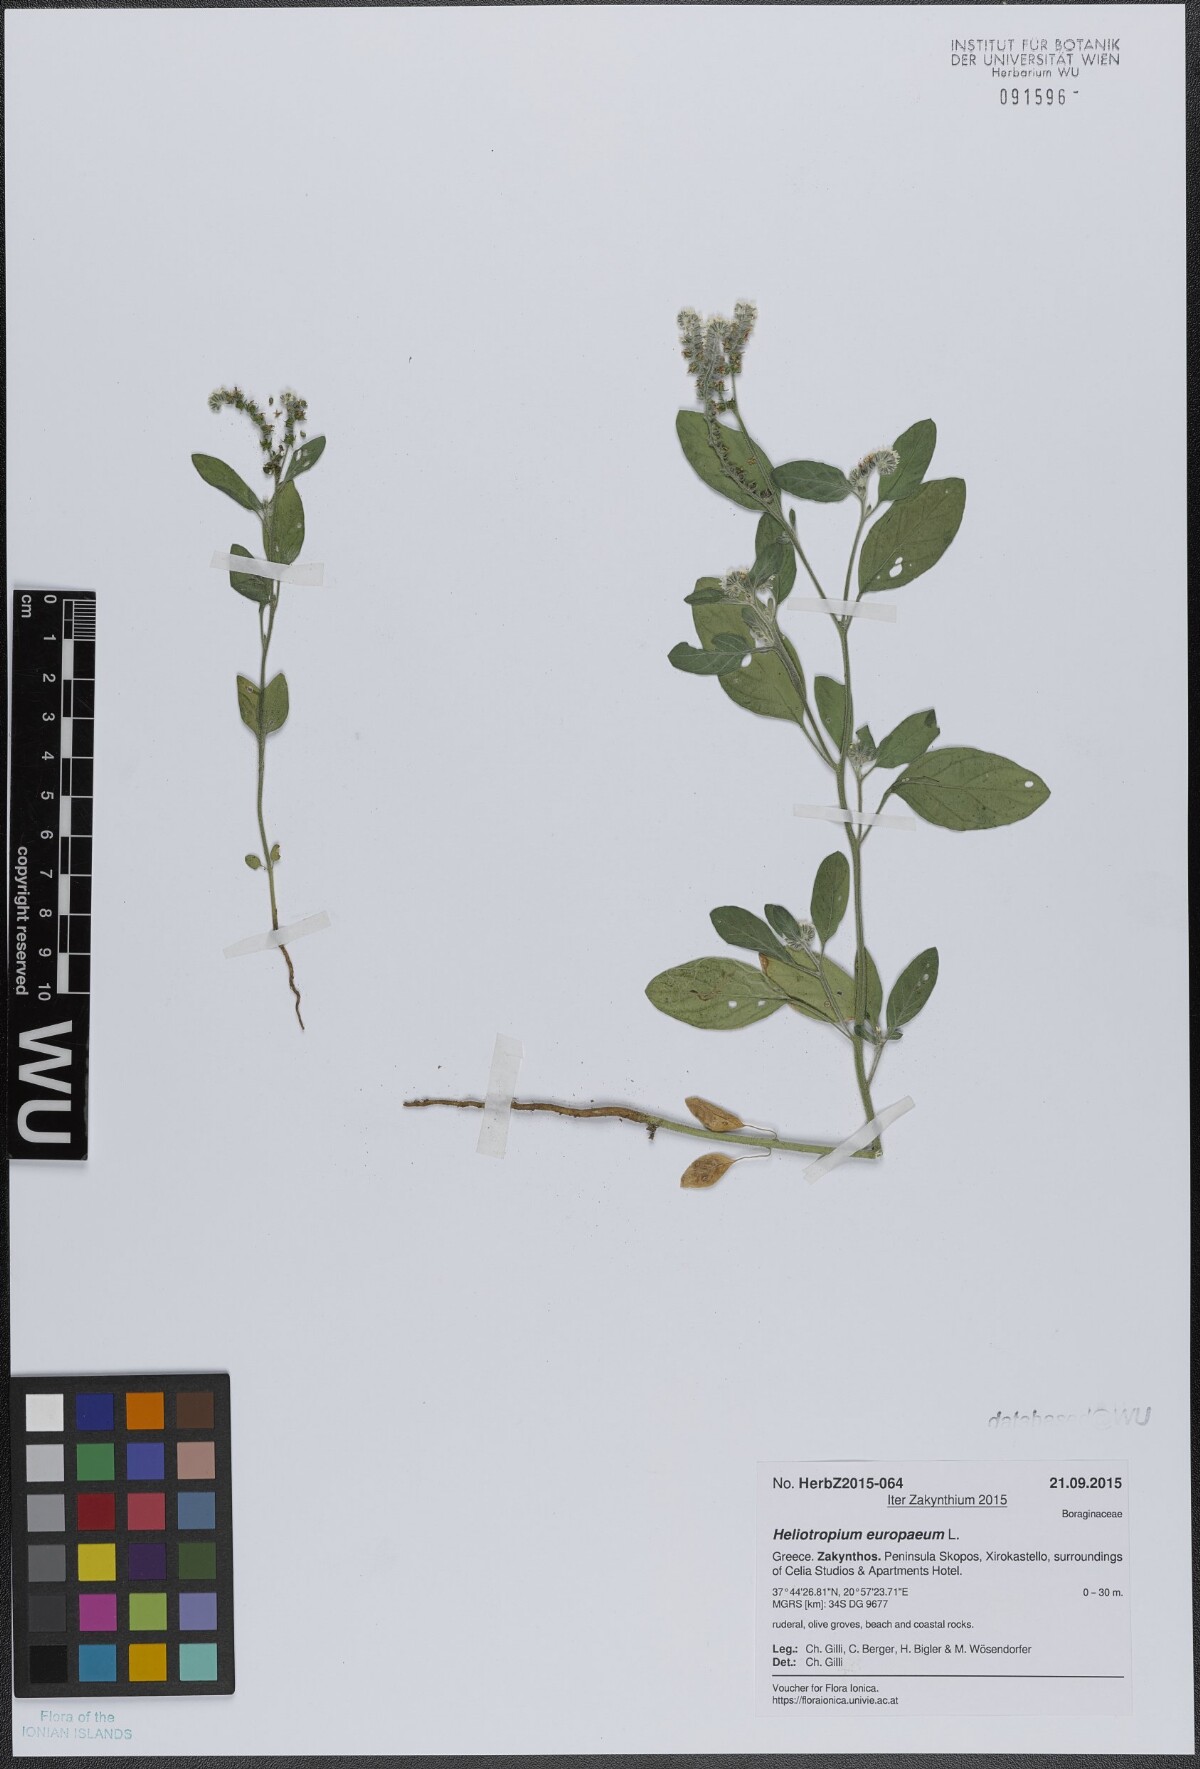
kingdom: Plantae
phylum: Tracheophyta
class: Magnoliopsida
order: Boraginales
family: Heliotropiaceae
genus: Heliotropium
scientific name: Heliotropium europaeum
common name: European heliotrope
